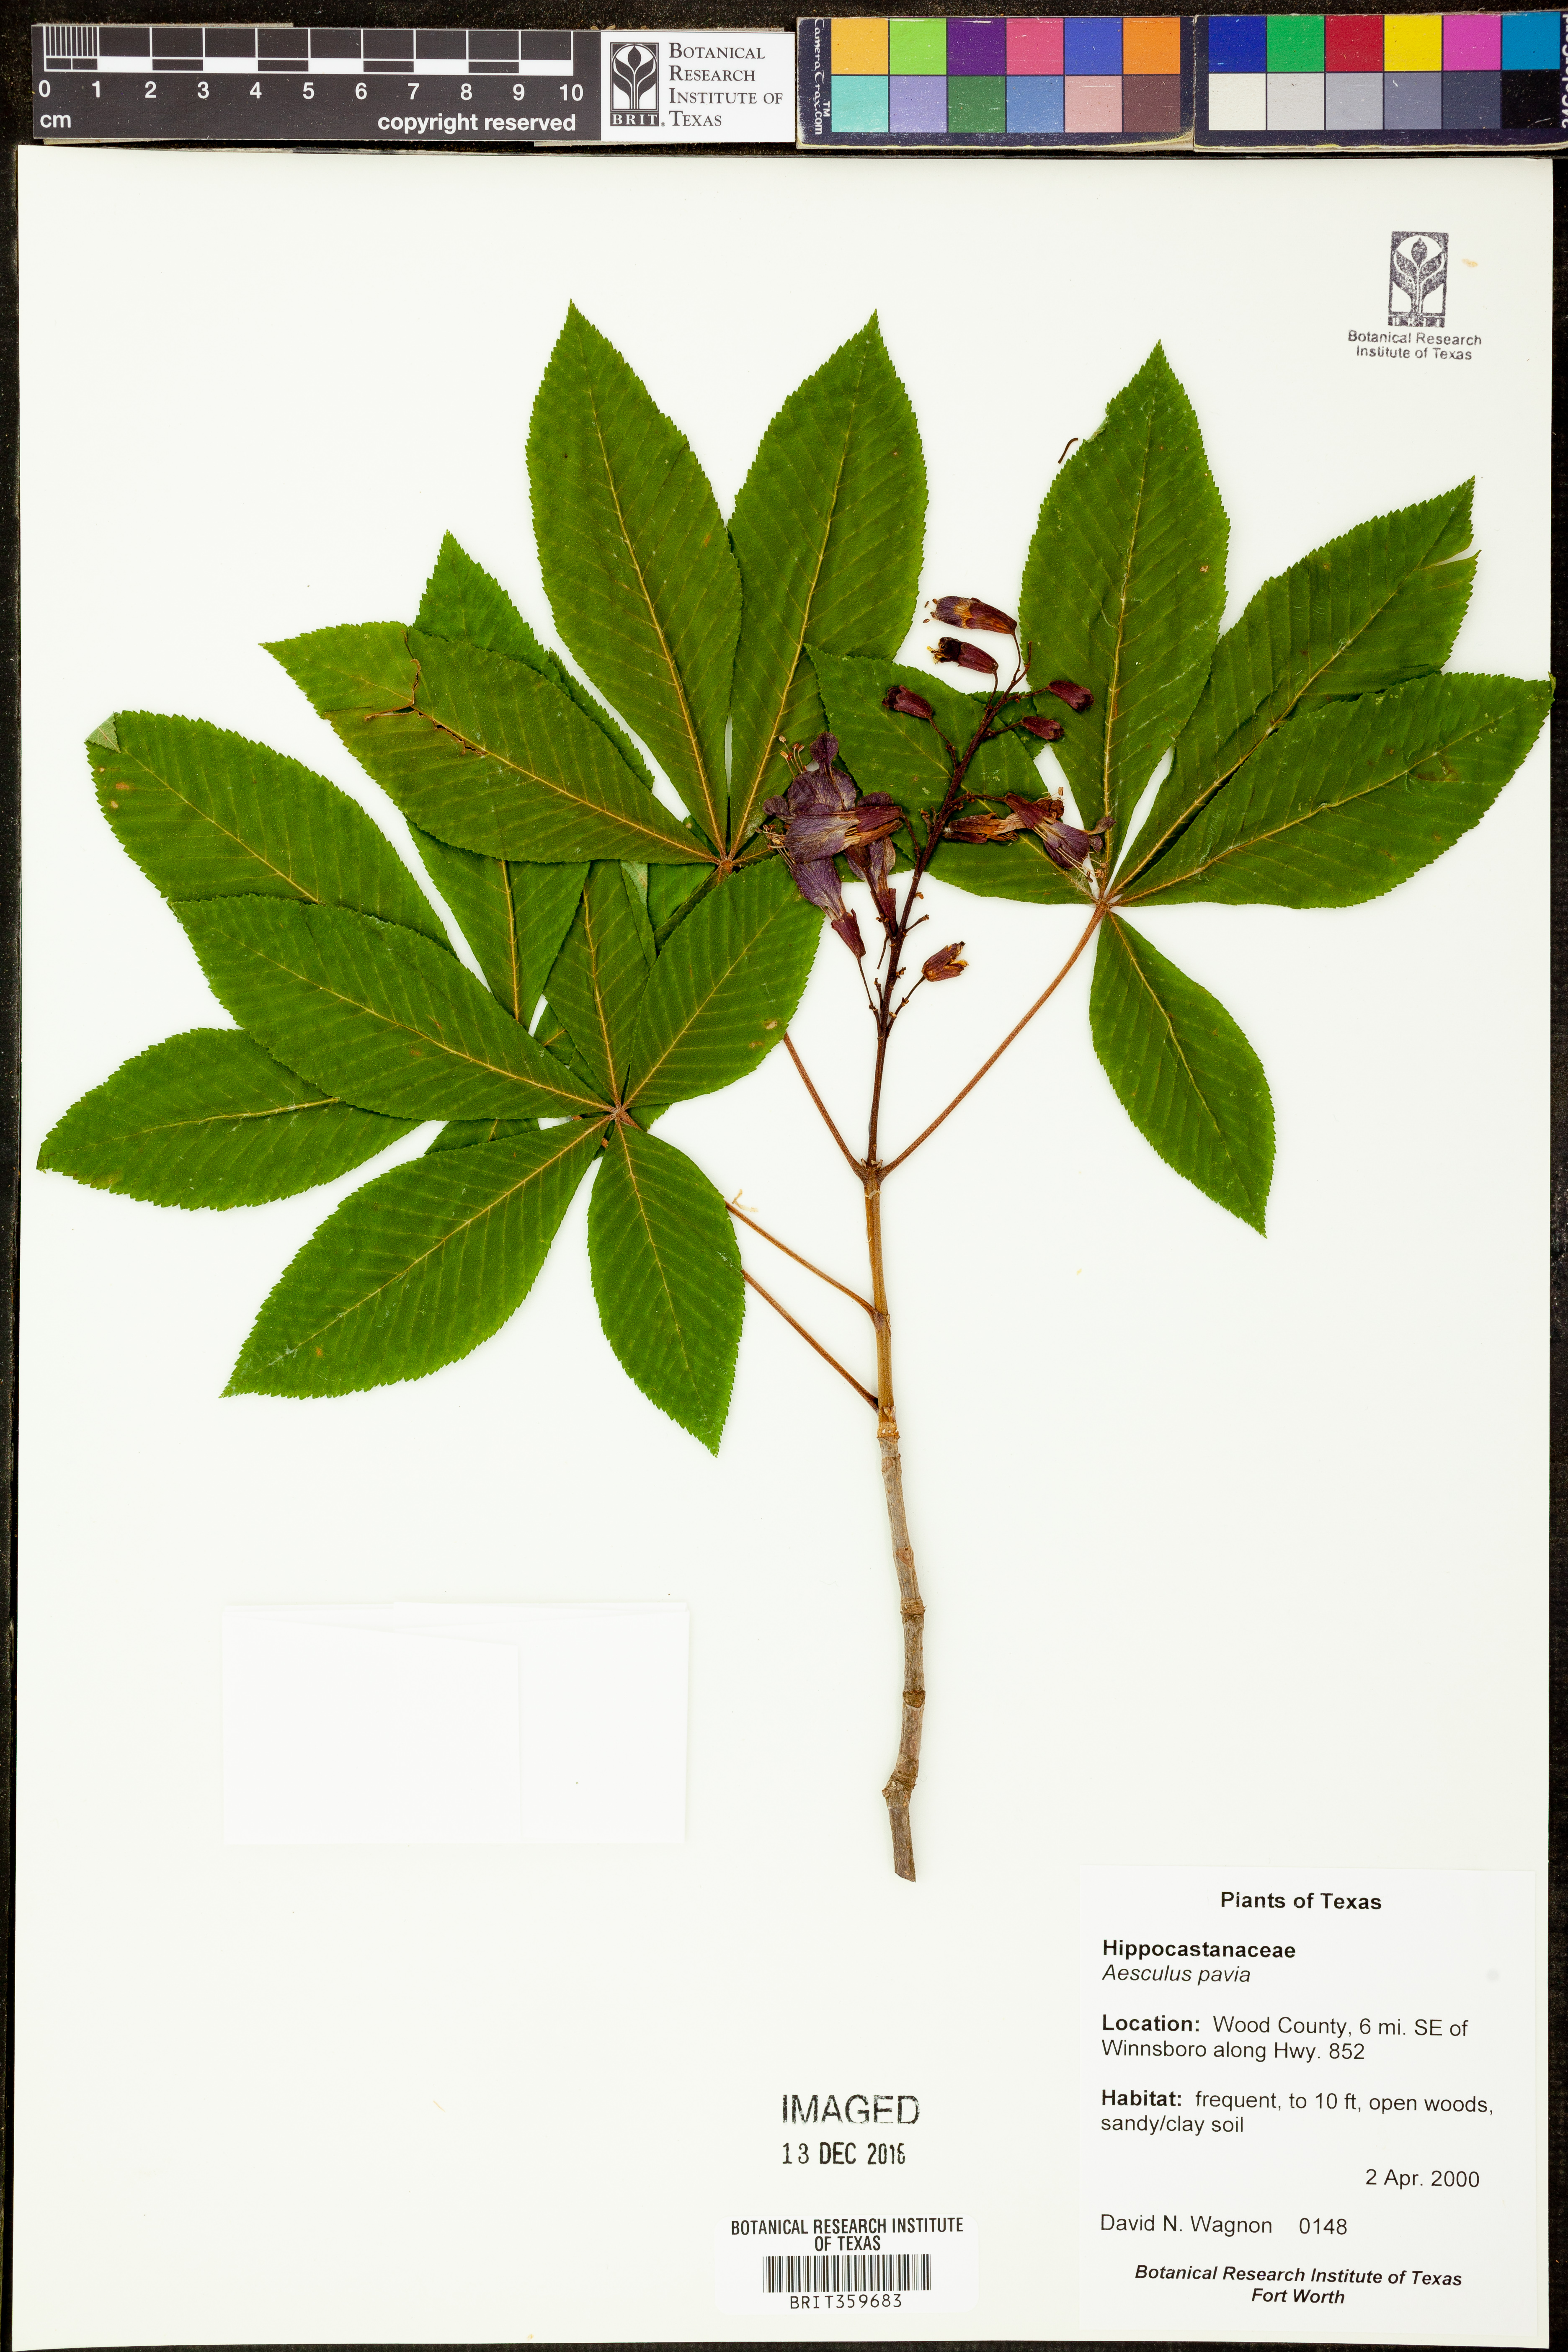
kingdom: Plantae
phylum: Tracheophyta
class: Magnoliopsida
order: Sapindales
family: Sapindaceae
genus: Aesculus
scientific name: Aesculus pavia
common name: Red buckeye
